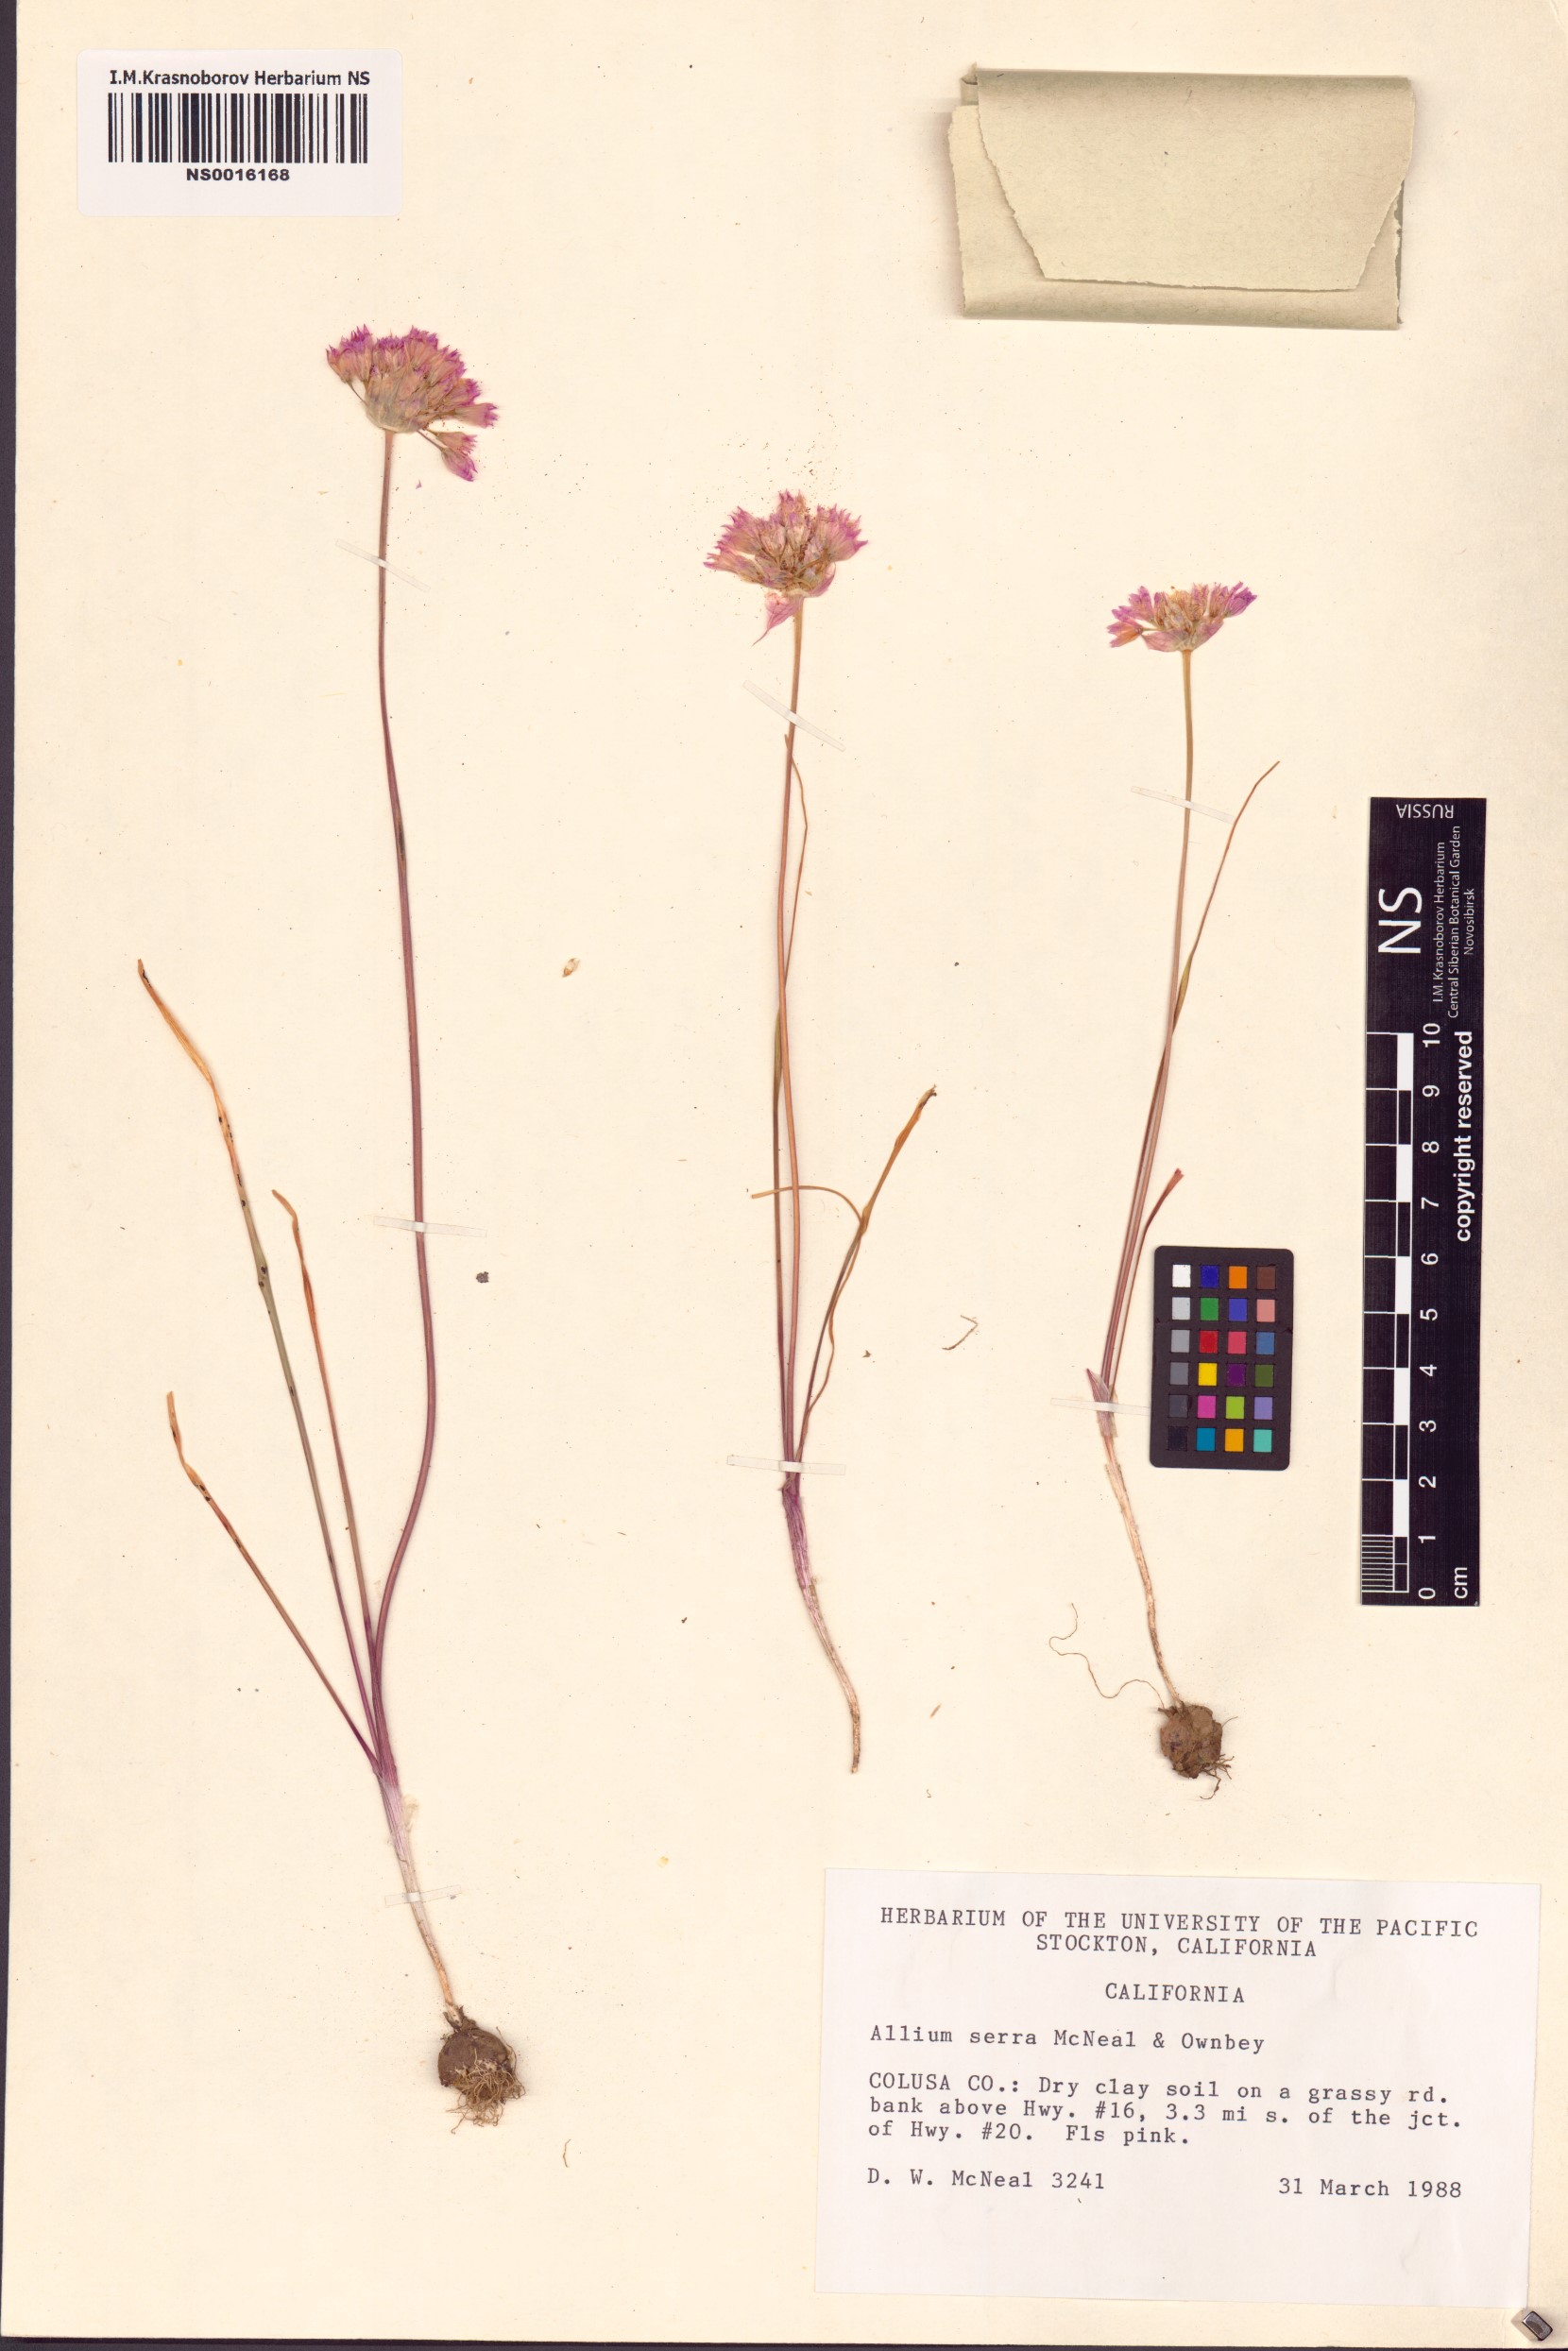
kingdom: Plantae
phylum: Tracheophyta
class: Liliopsida
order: Asparagales
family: Amaryllidaceae
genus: Allium
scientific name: Allium serra
